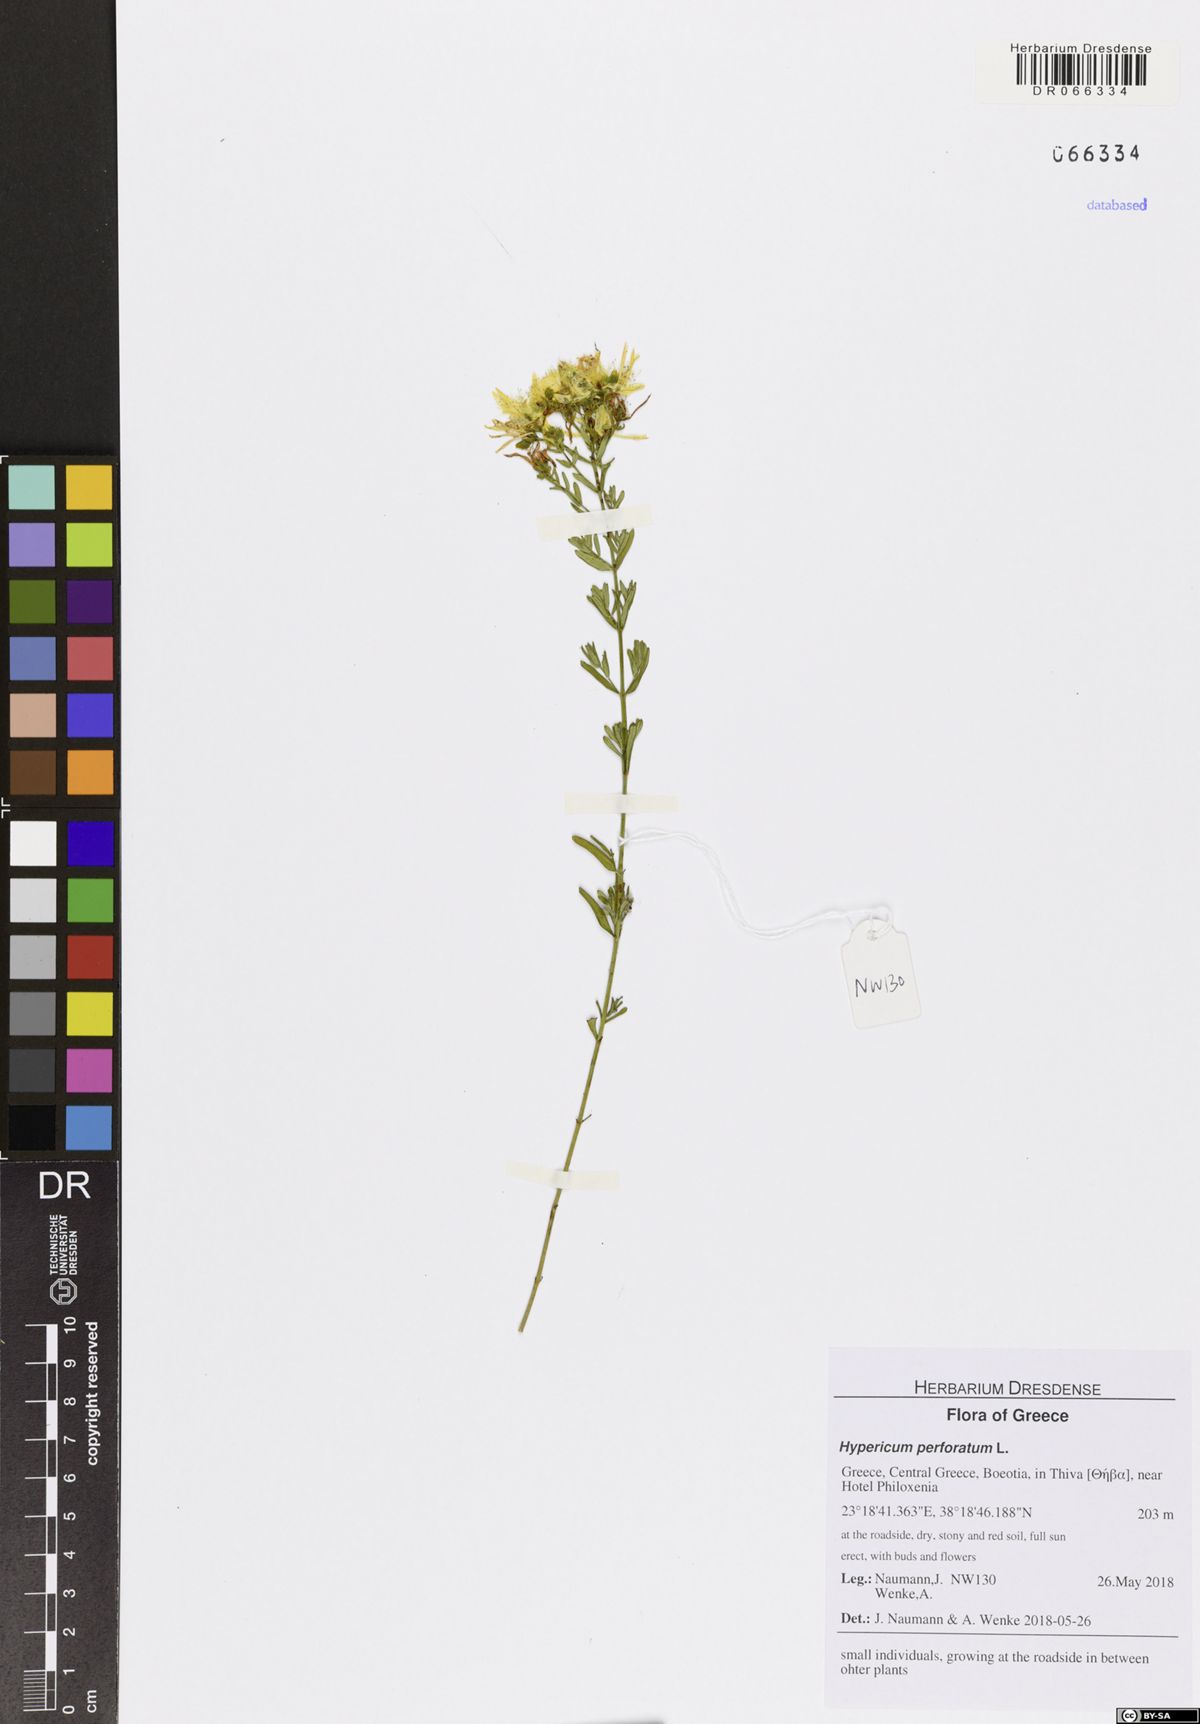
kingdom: Plantae
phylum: Tracheophyta
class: Magnoliopsida
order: Malpighiales
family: Hypericaceae
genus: Hypericum
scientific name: Hypericum perforatum
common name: Common st. johnswort
